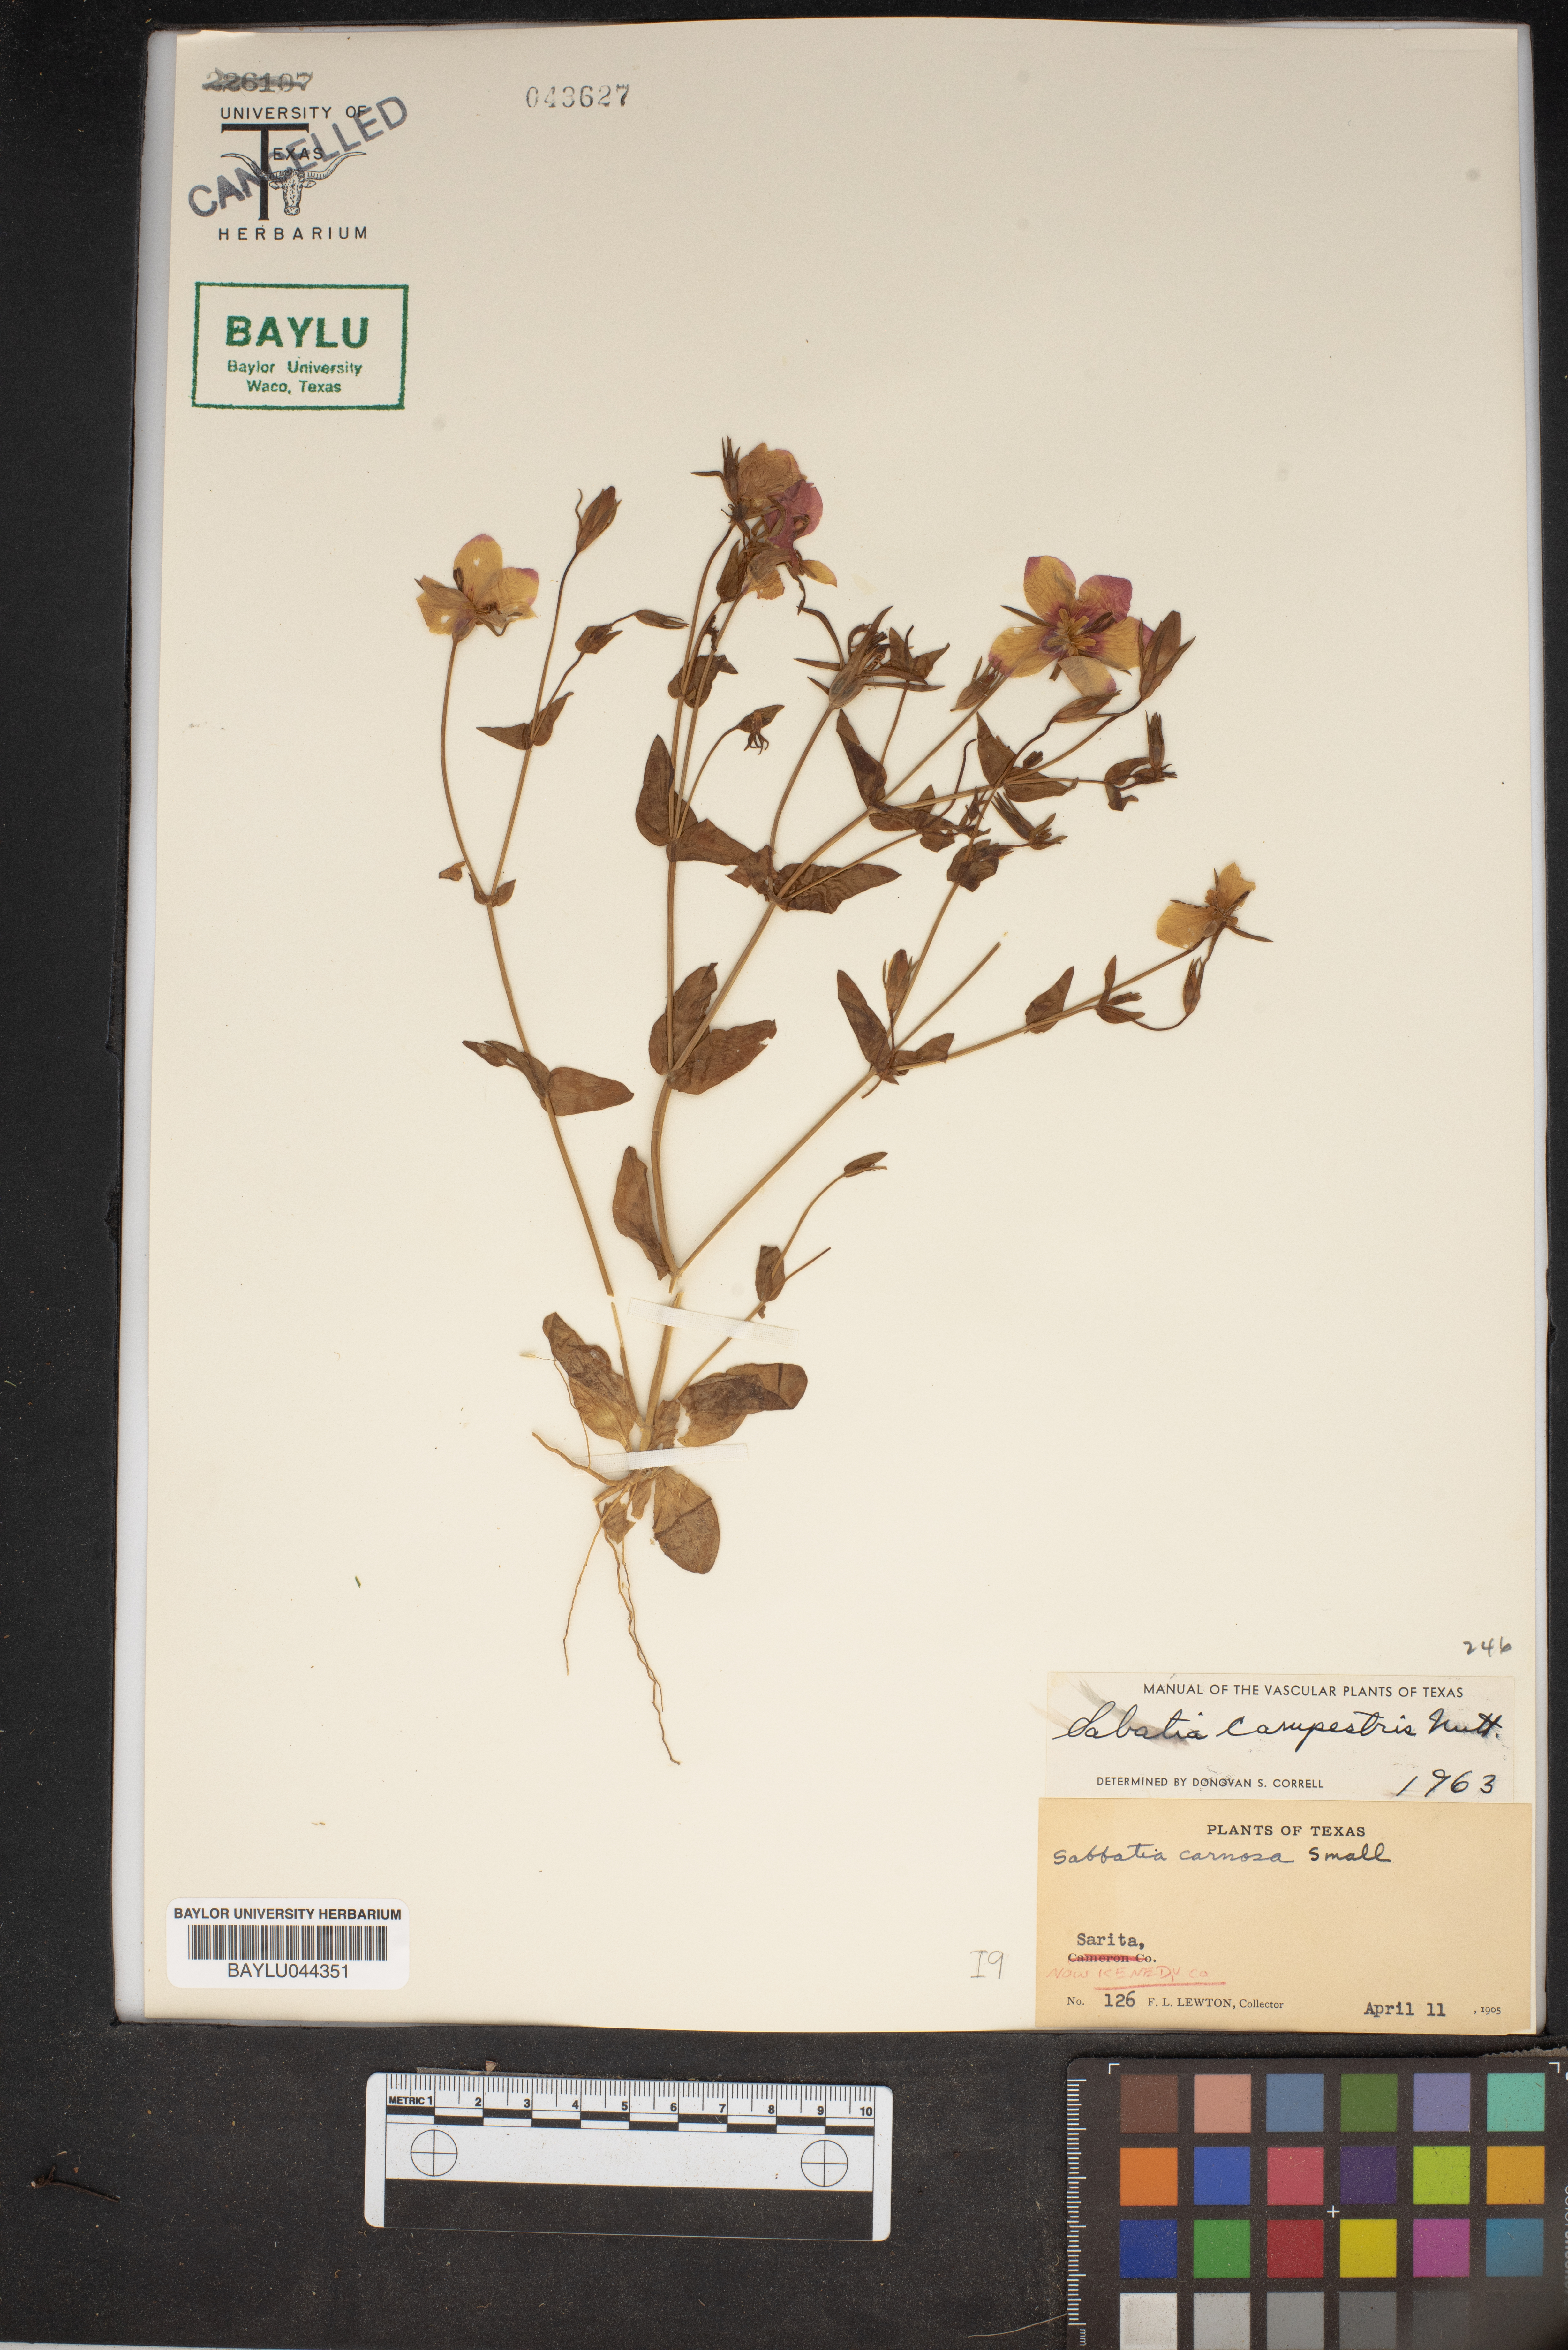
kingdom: Plantae
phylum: Tracheophyta
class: Magnoliopsida
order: Gentianales
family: Gentianaceae
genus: Sabatia
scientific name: Sabatia campestris
